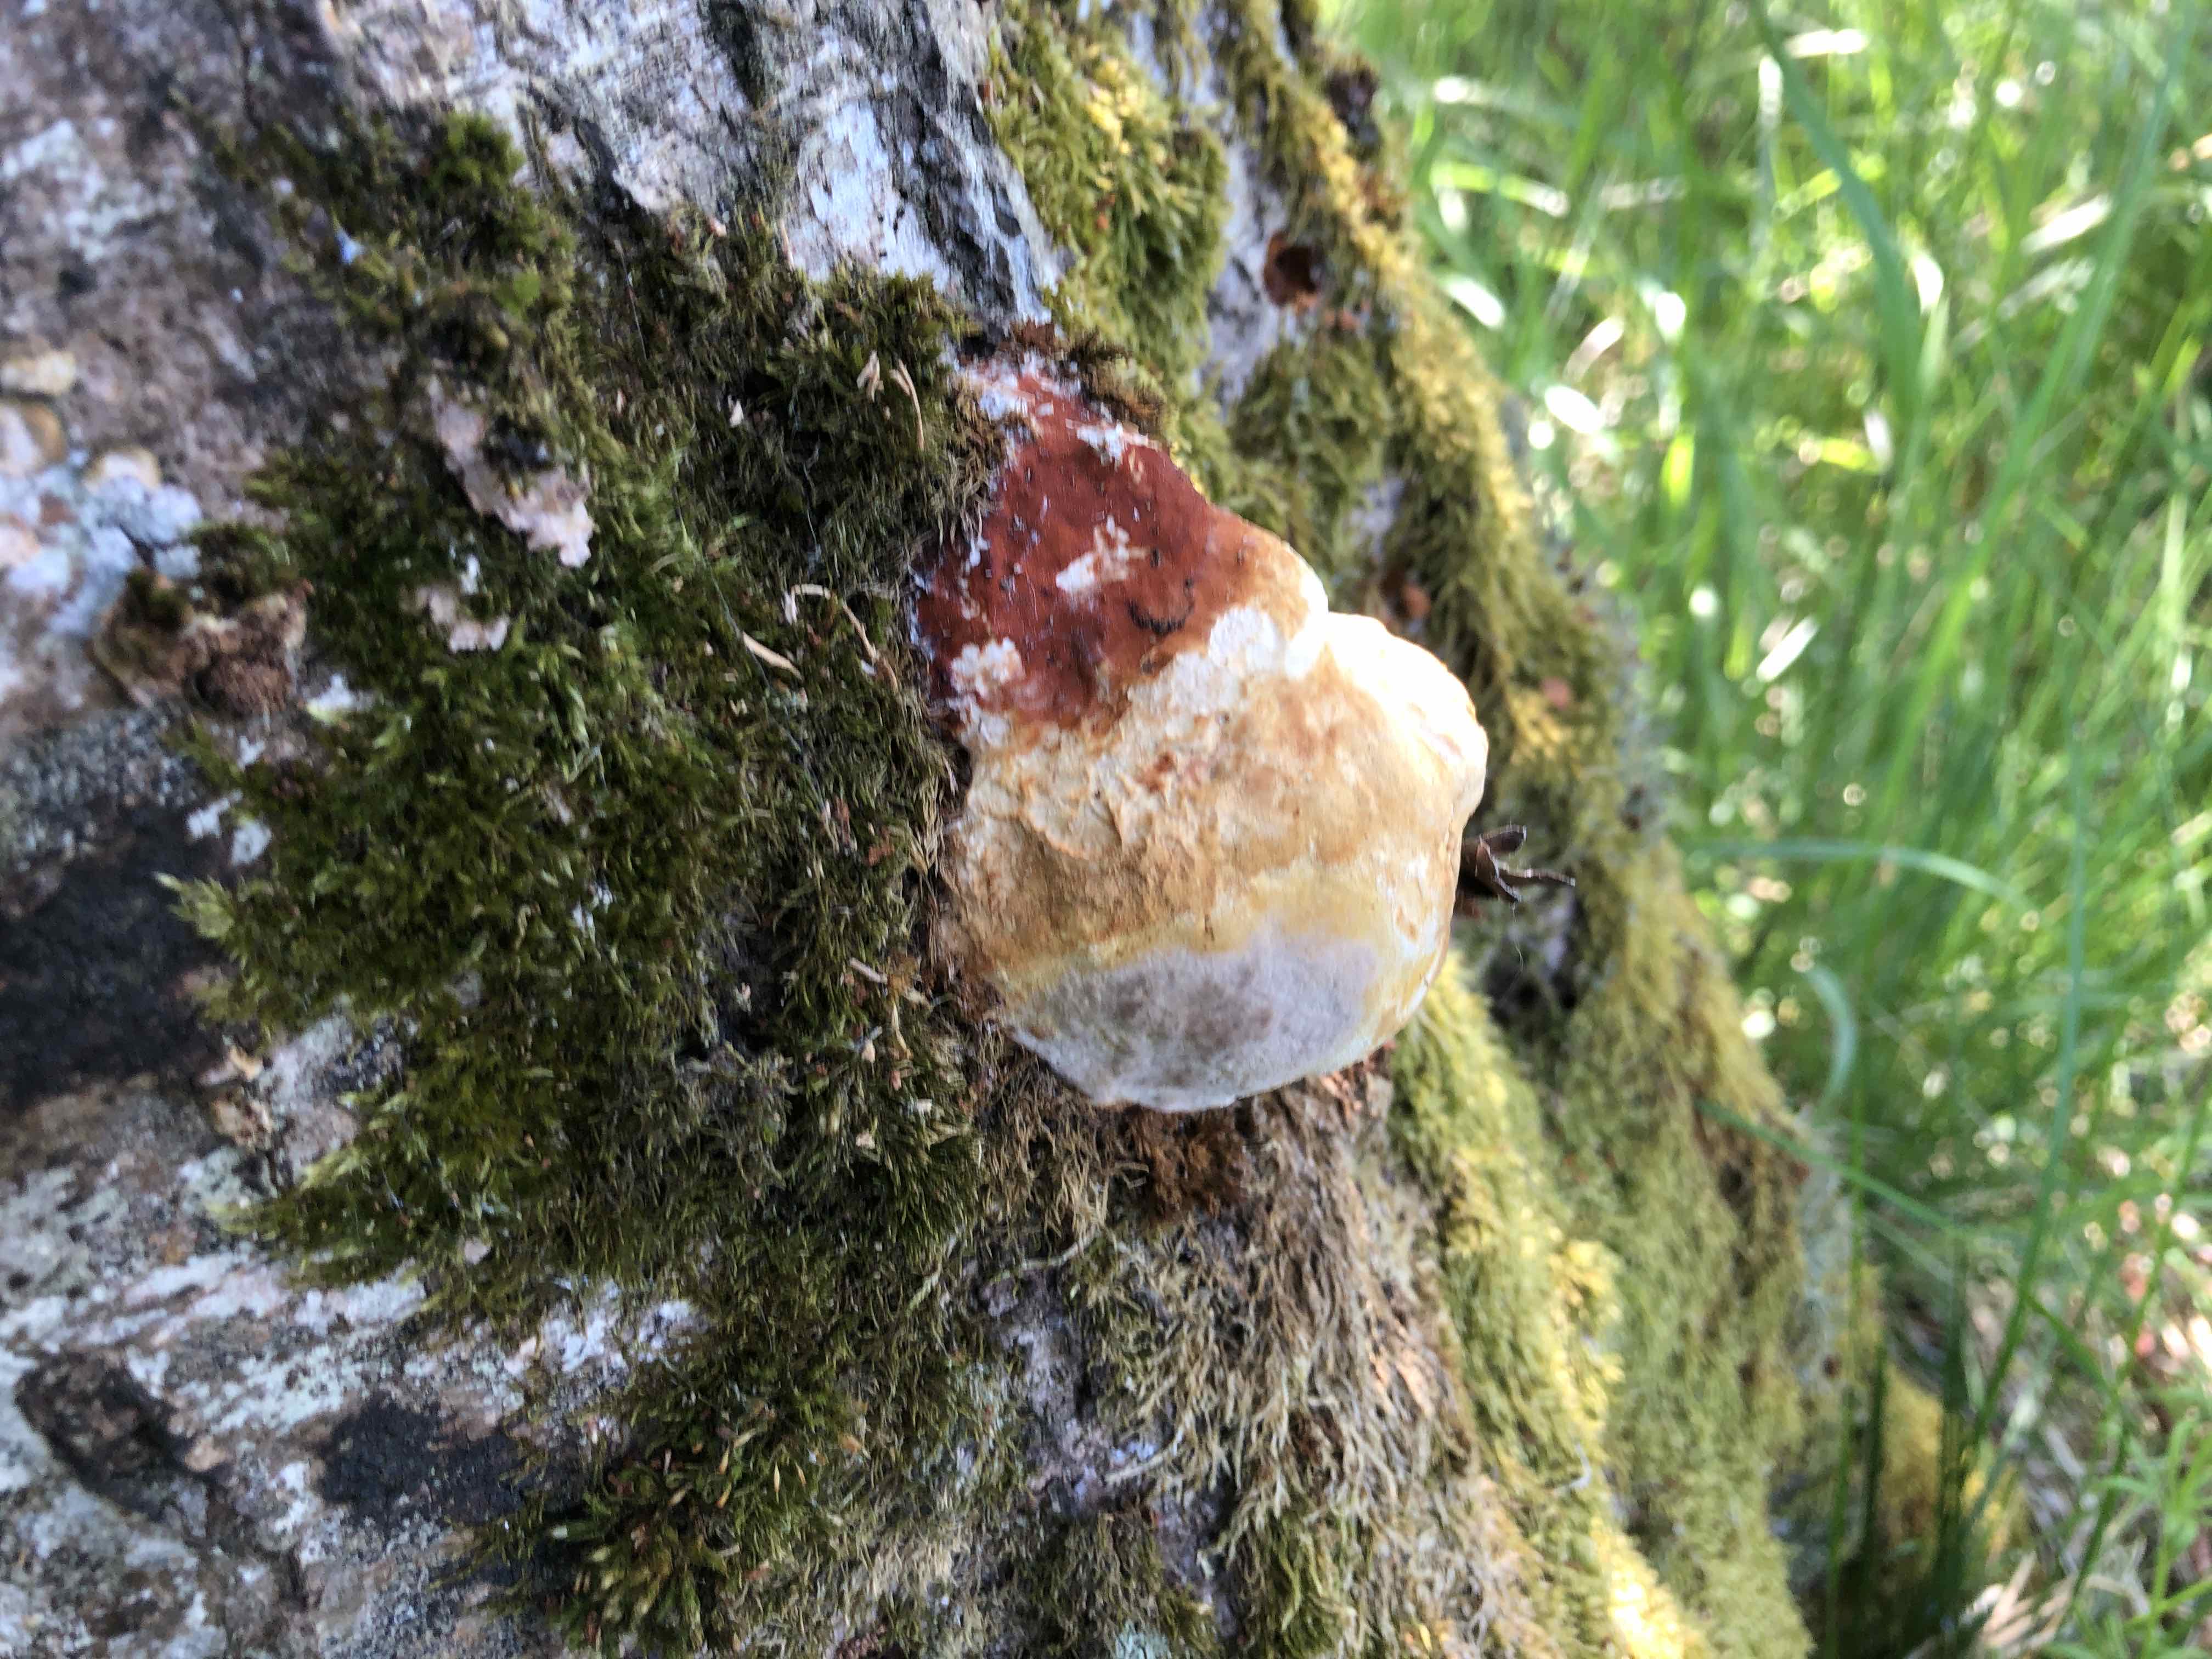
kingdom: Fungi
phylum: Basidiomycota
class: Agaricomycetes
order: Polyporales
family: Fomitopsidaceae
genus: Fomitopsis
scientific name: Fomitopsis pinicola
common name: randbæltet hovporesvamp
